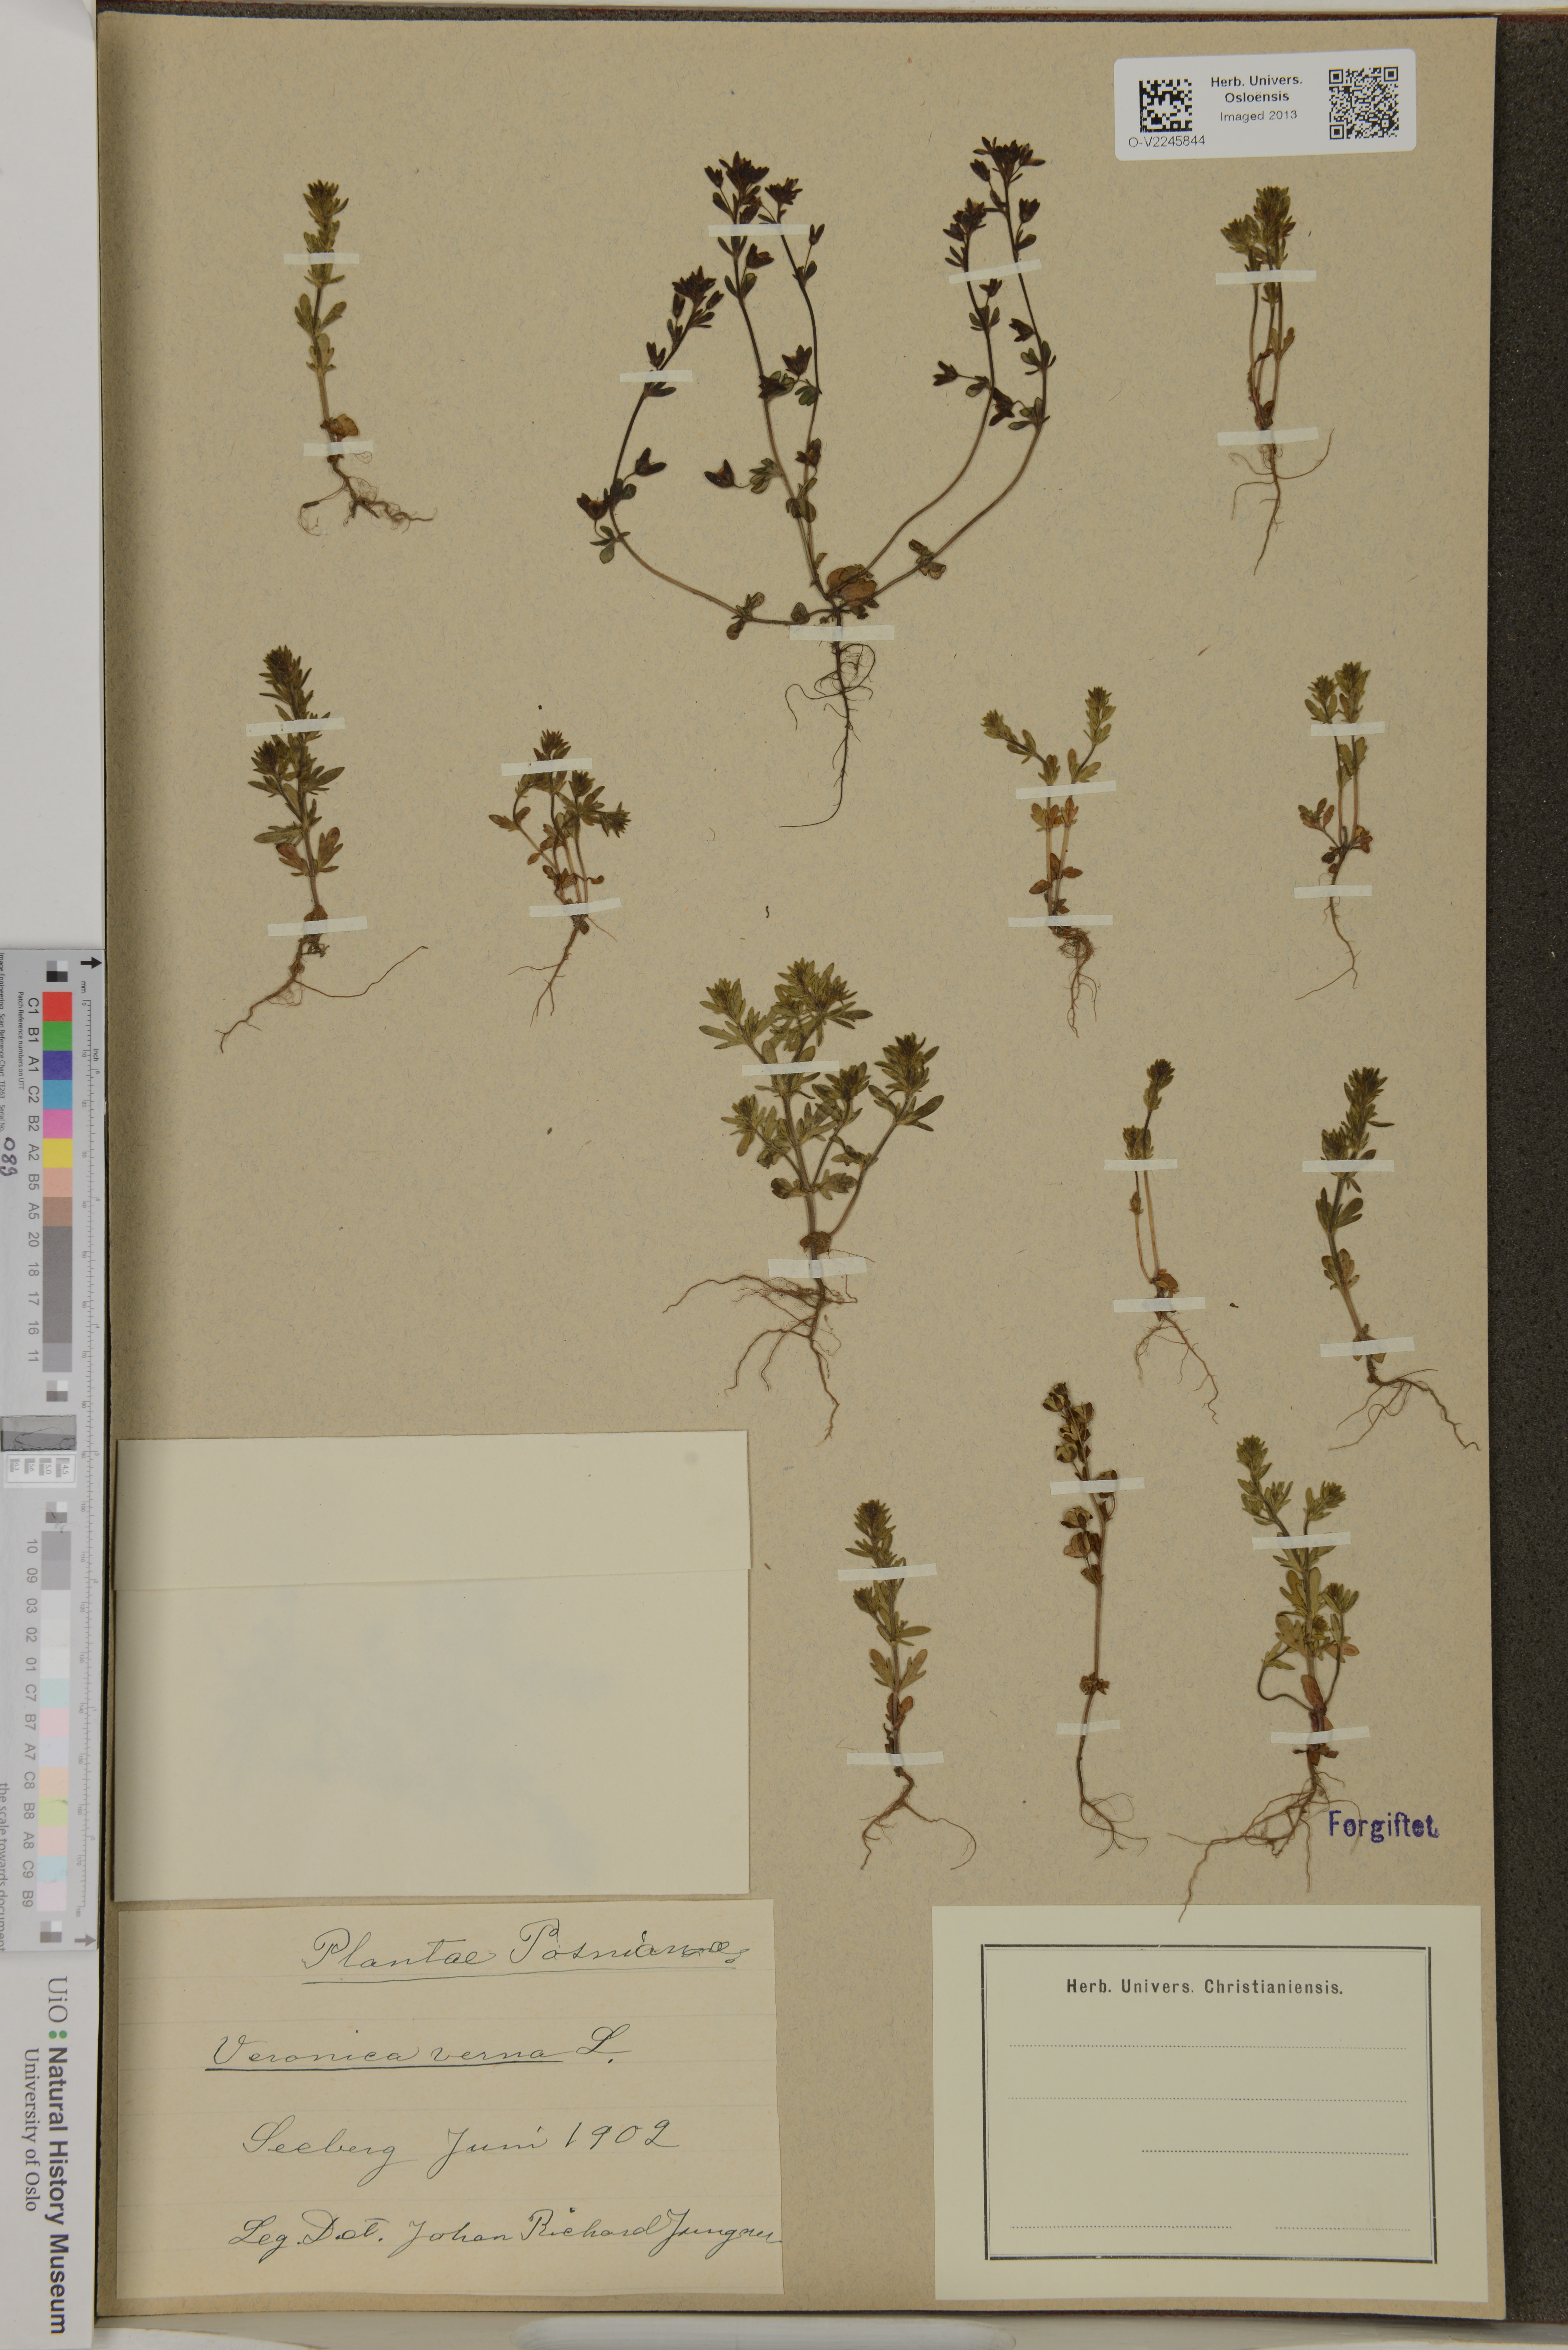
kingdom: Plantae
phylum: Tracheophyta
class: Magnoliopsida
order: Lamiales
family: Plantaginaceae
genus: Veronica
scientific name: Veronica verna
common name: Spring speedwell
